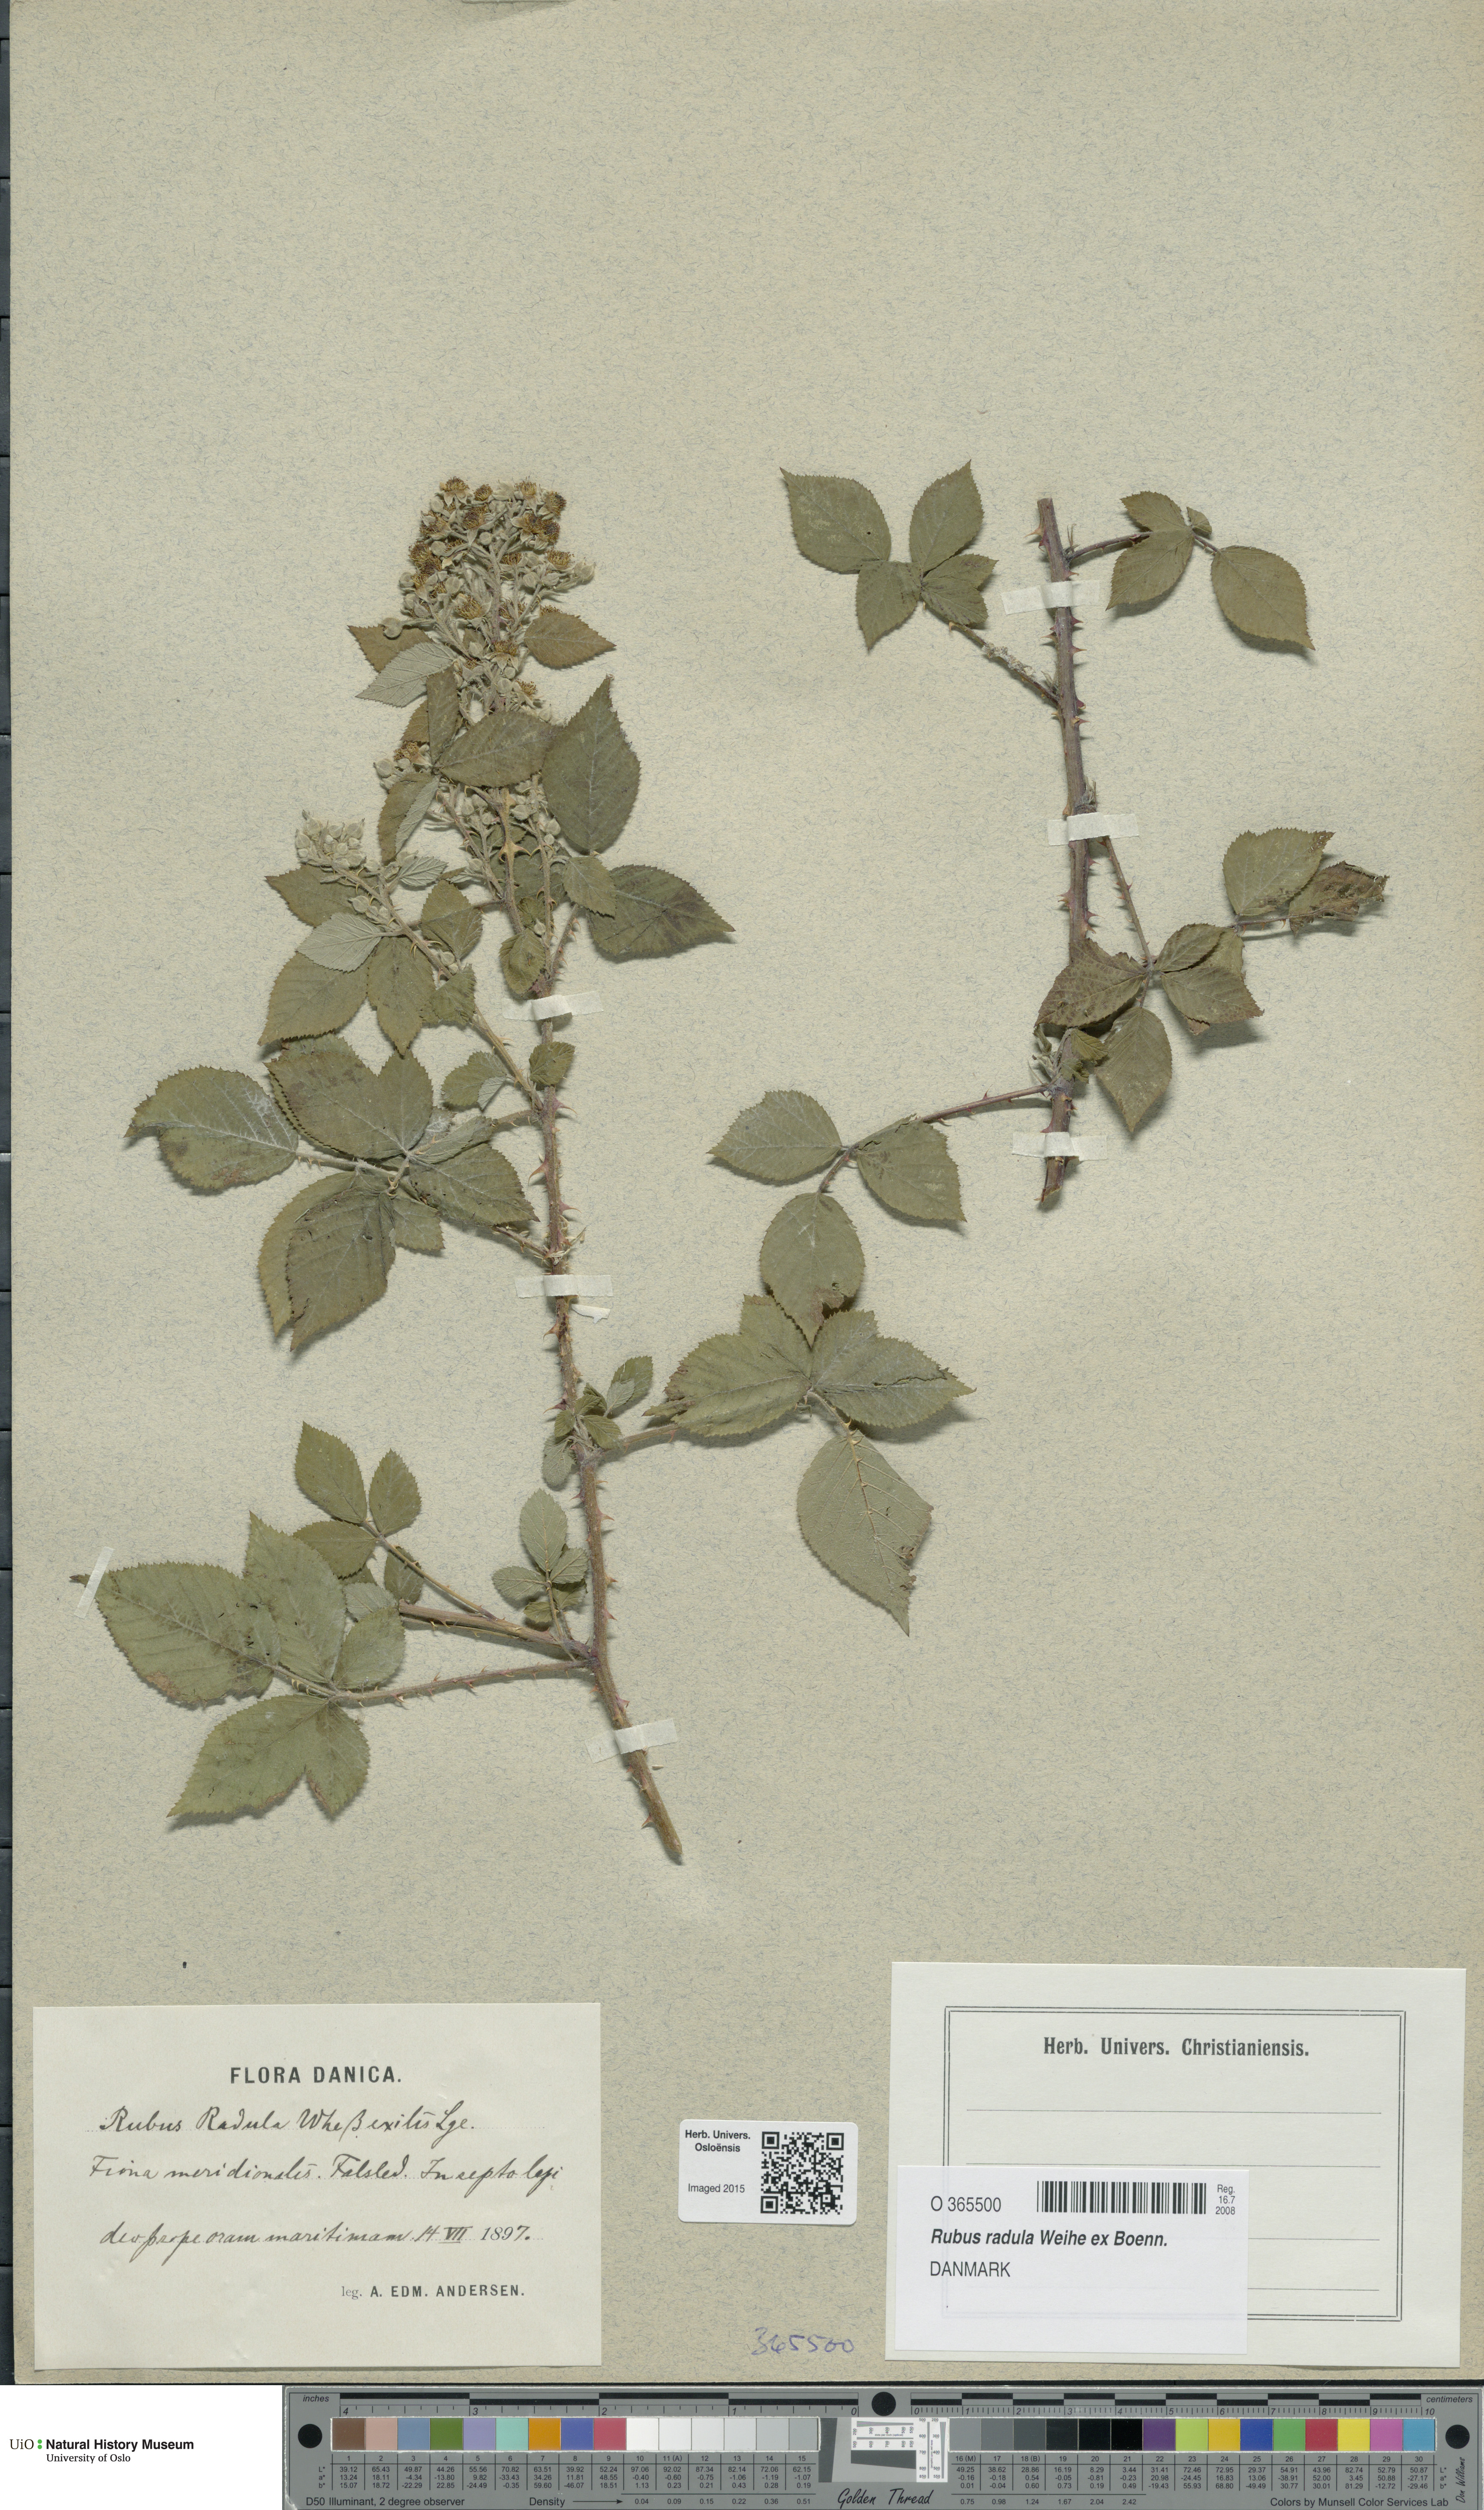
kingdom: Plantae
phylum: Tracheophyta
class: Magnoliopsida
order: Rosales
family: Rosaceae
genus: Rubus
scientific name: Rubus radula
